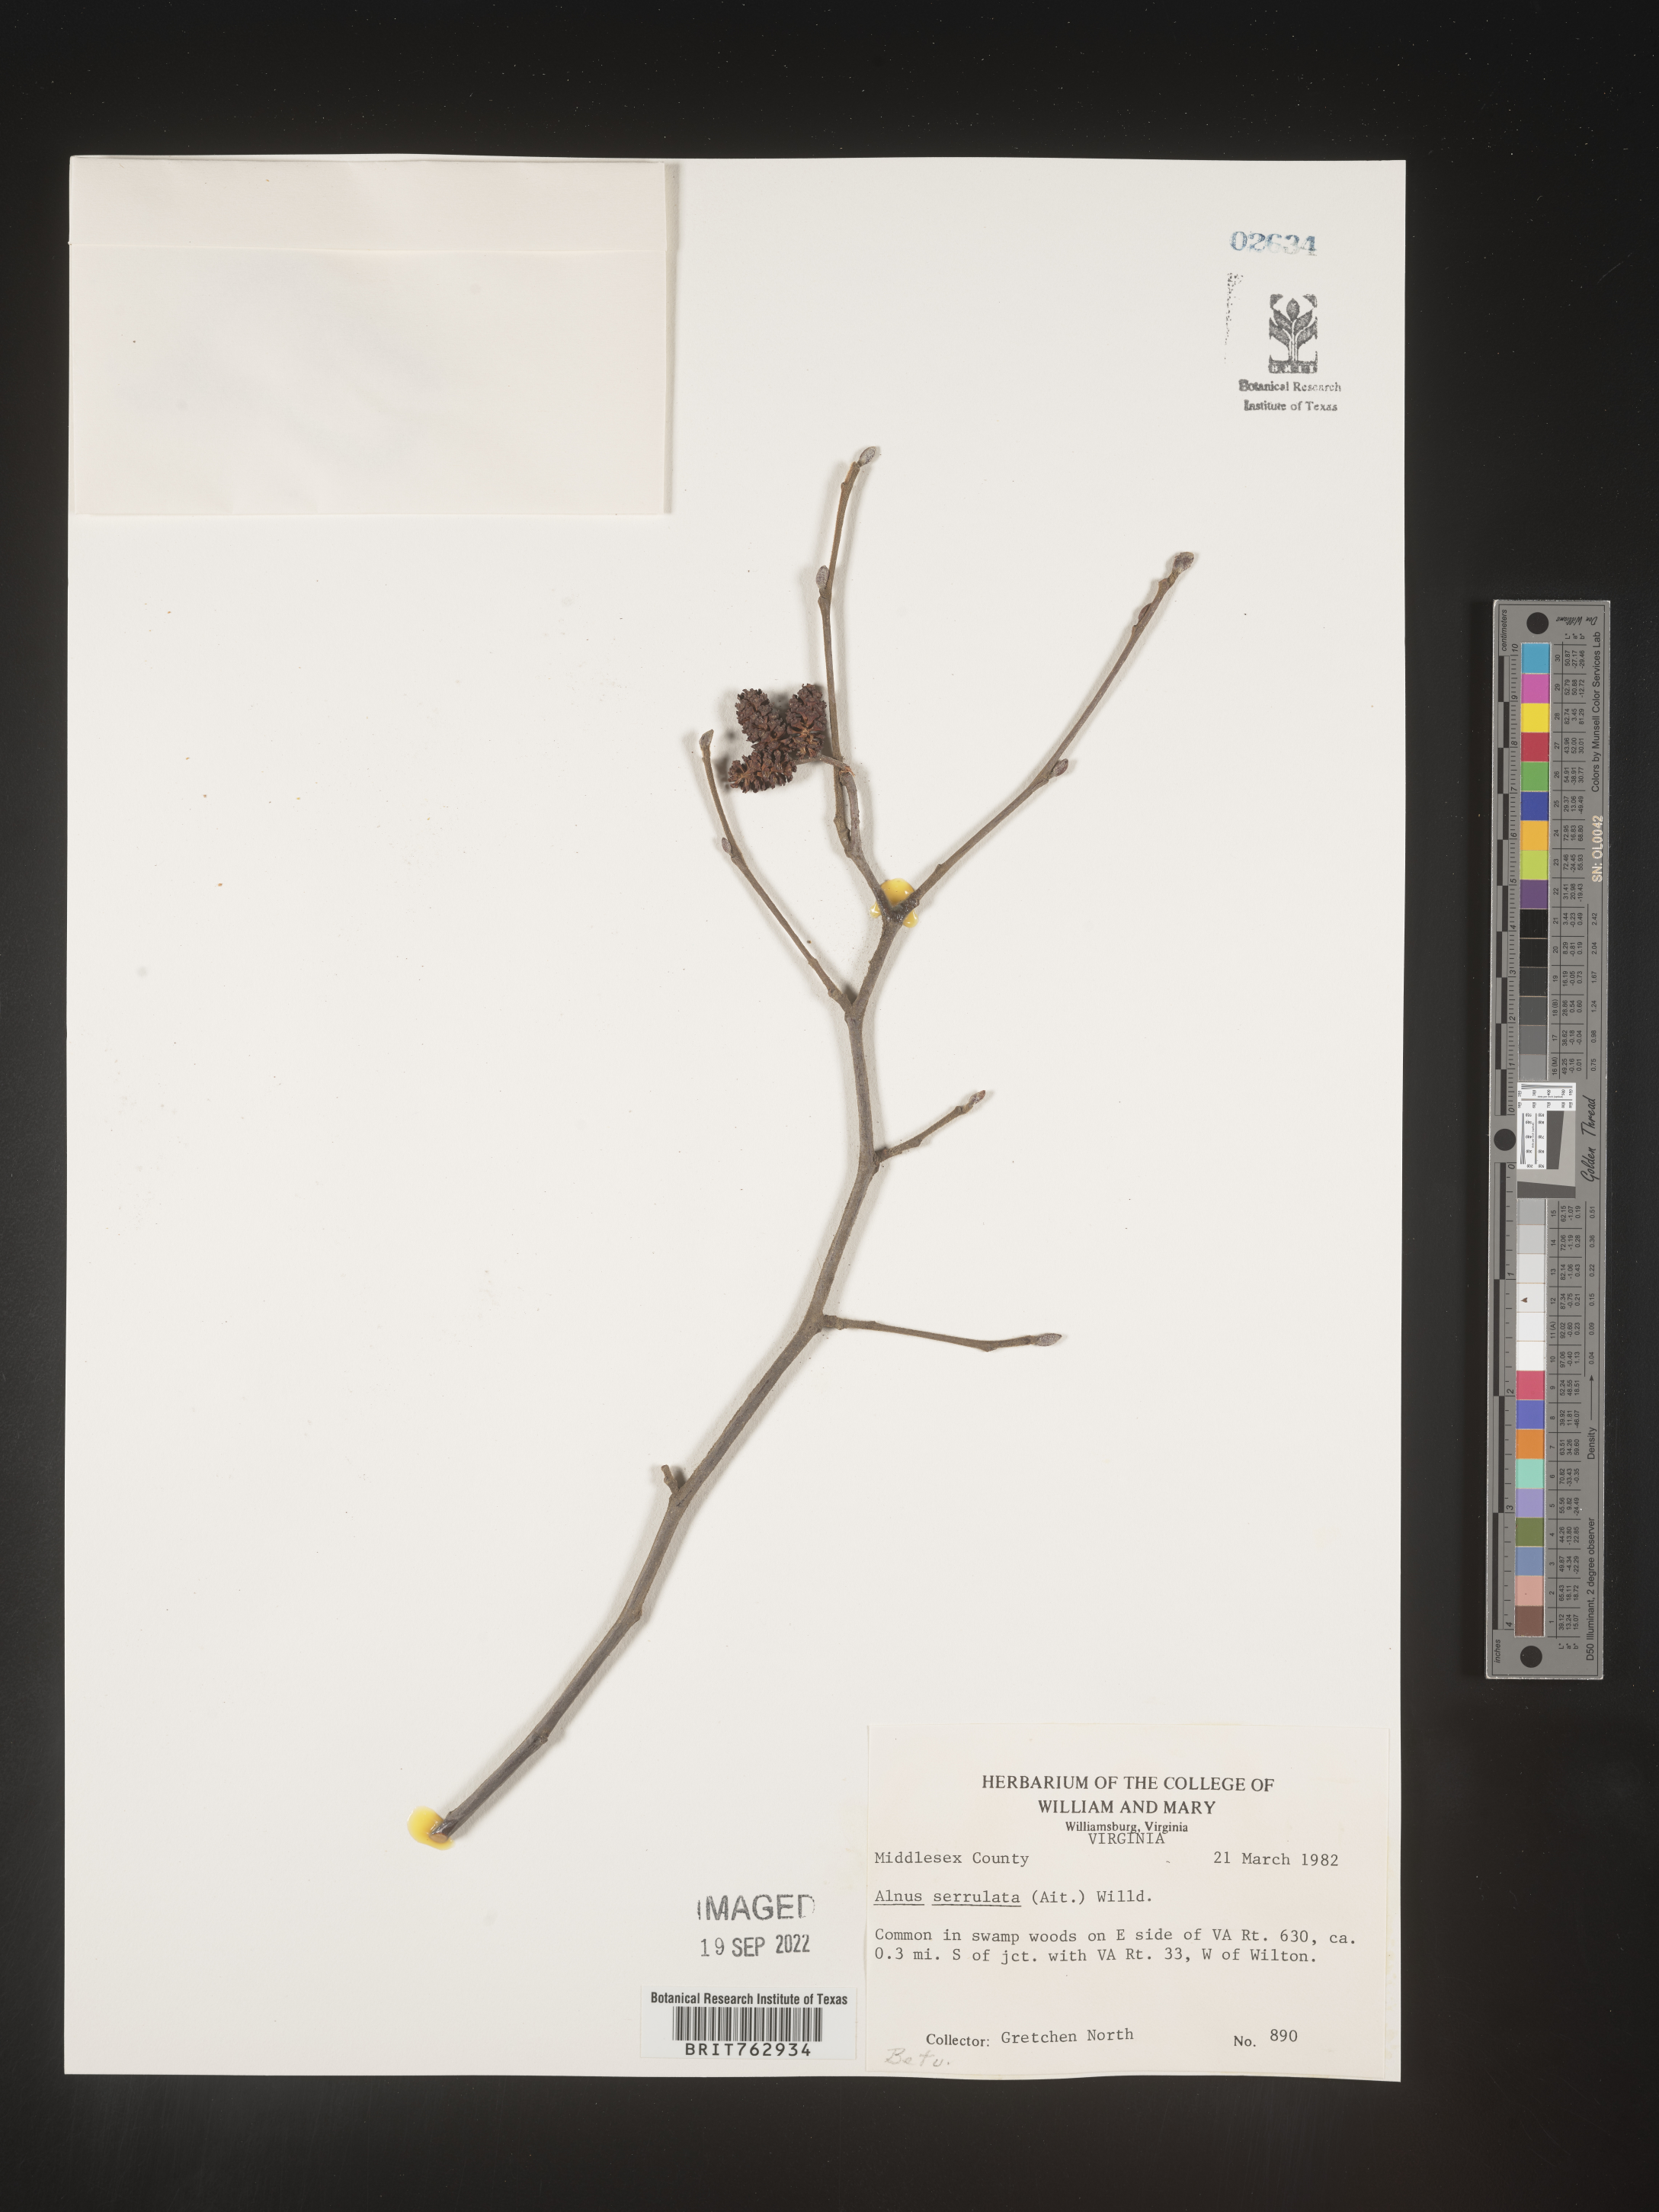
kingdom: Plantae
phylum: Tracheophyta
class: Magnoliopsida
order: Fagales
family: Betulaceae
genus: Alnus
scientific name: Alnus serrulata
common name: Hazel alder
